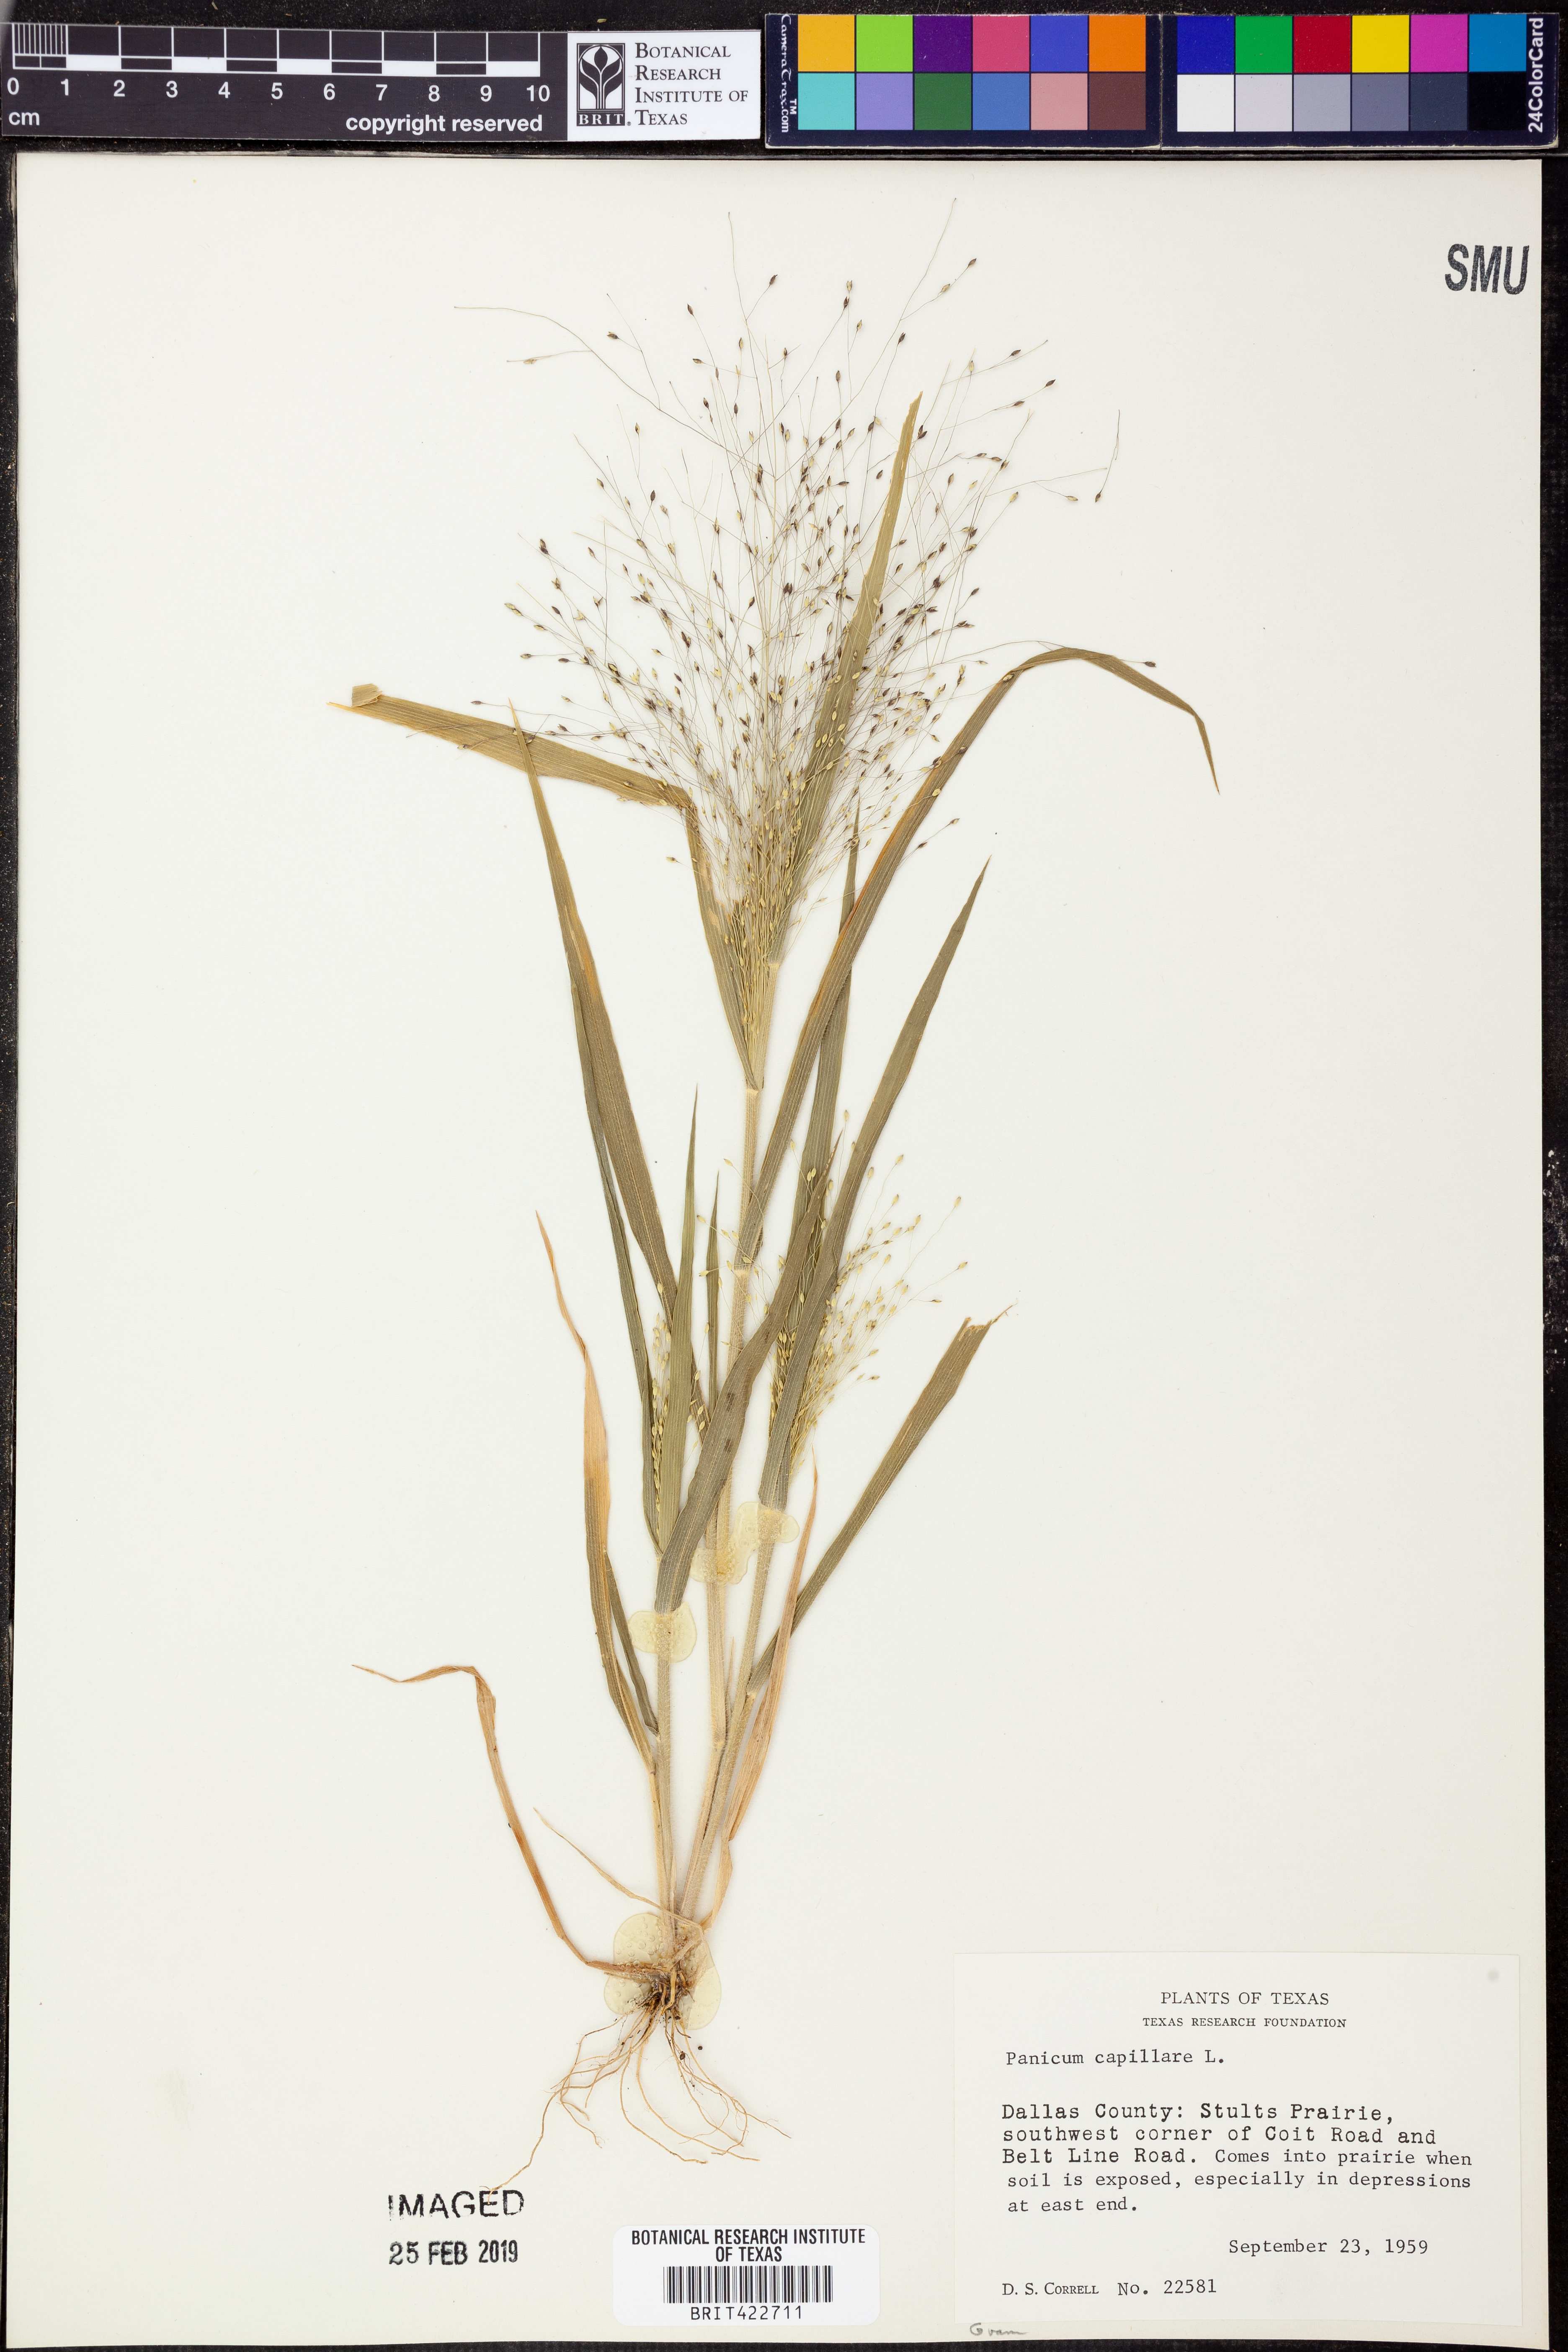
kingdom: Plantae
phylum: Tracheophyta
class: Liliopsida
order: Poales
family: Poaceae
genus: Panicum
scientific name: Panicum capillare
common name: Witch-grass
